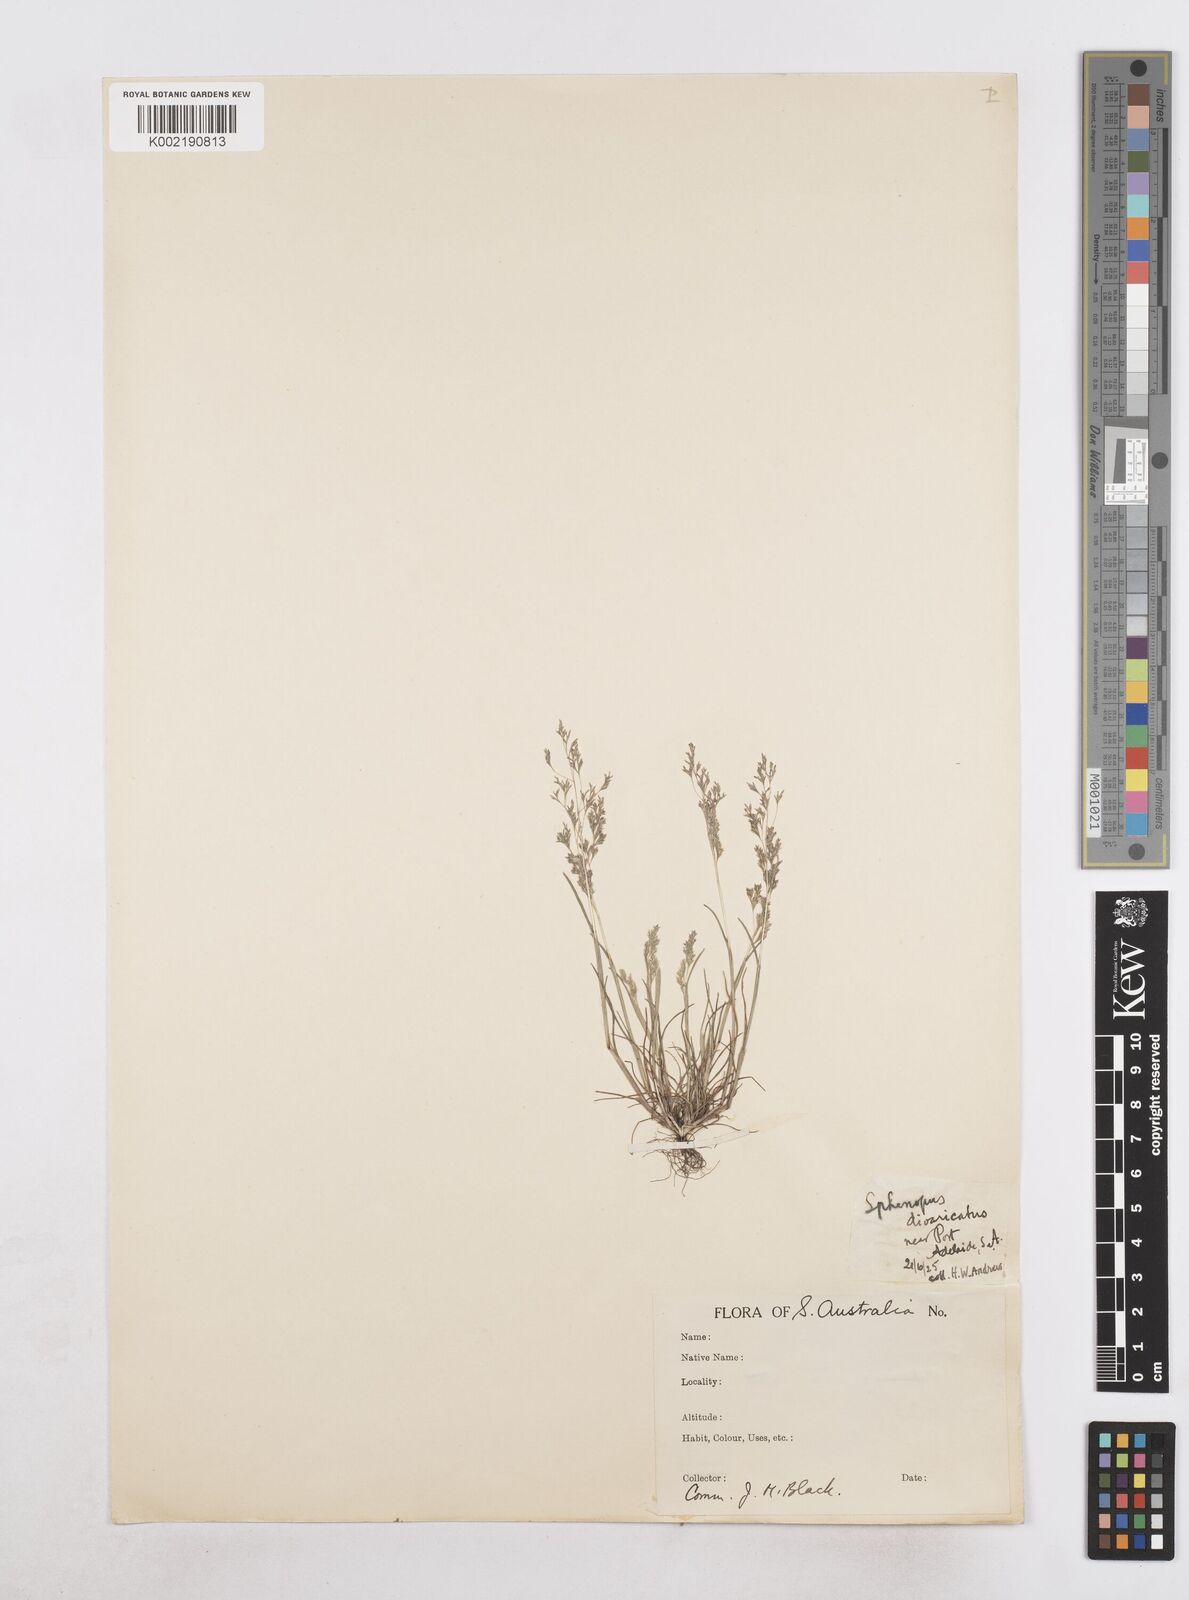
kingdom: Plantae
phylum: Tracheophyta
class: Liliopsida
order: Poales
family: Poaceae
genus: Sphenopus
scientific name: Sphenopus divaricatus
